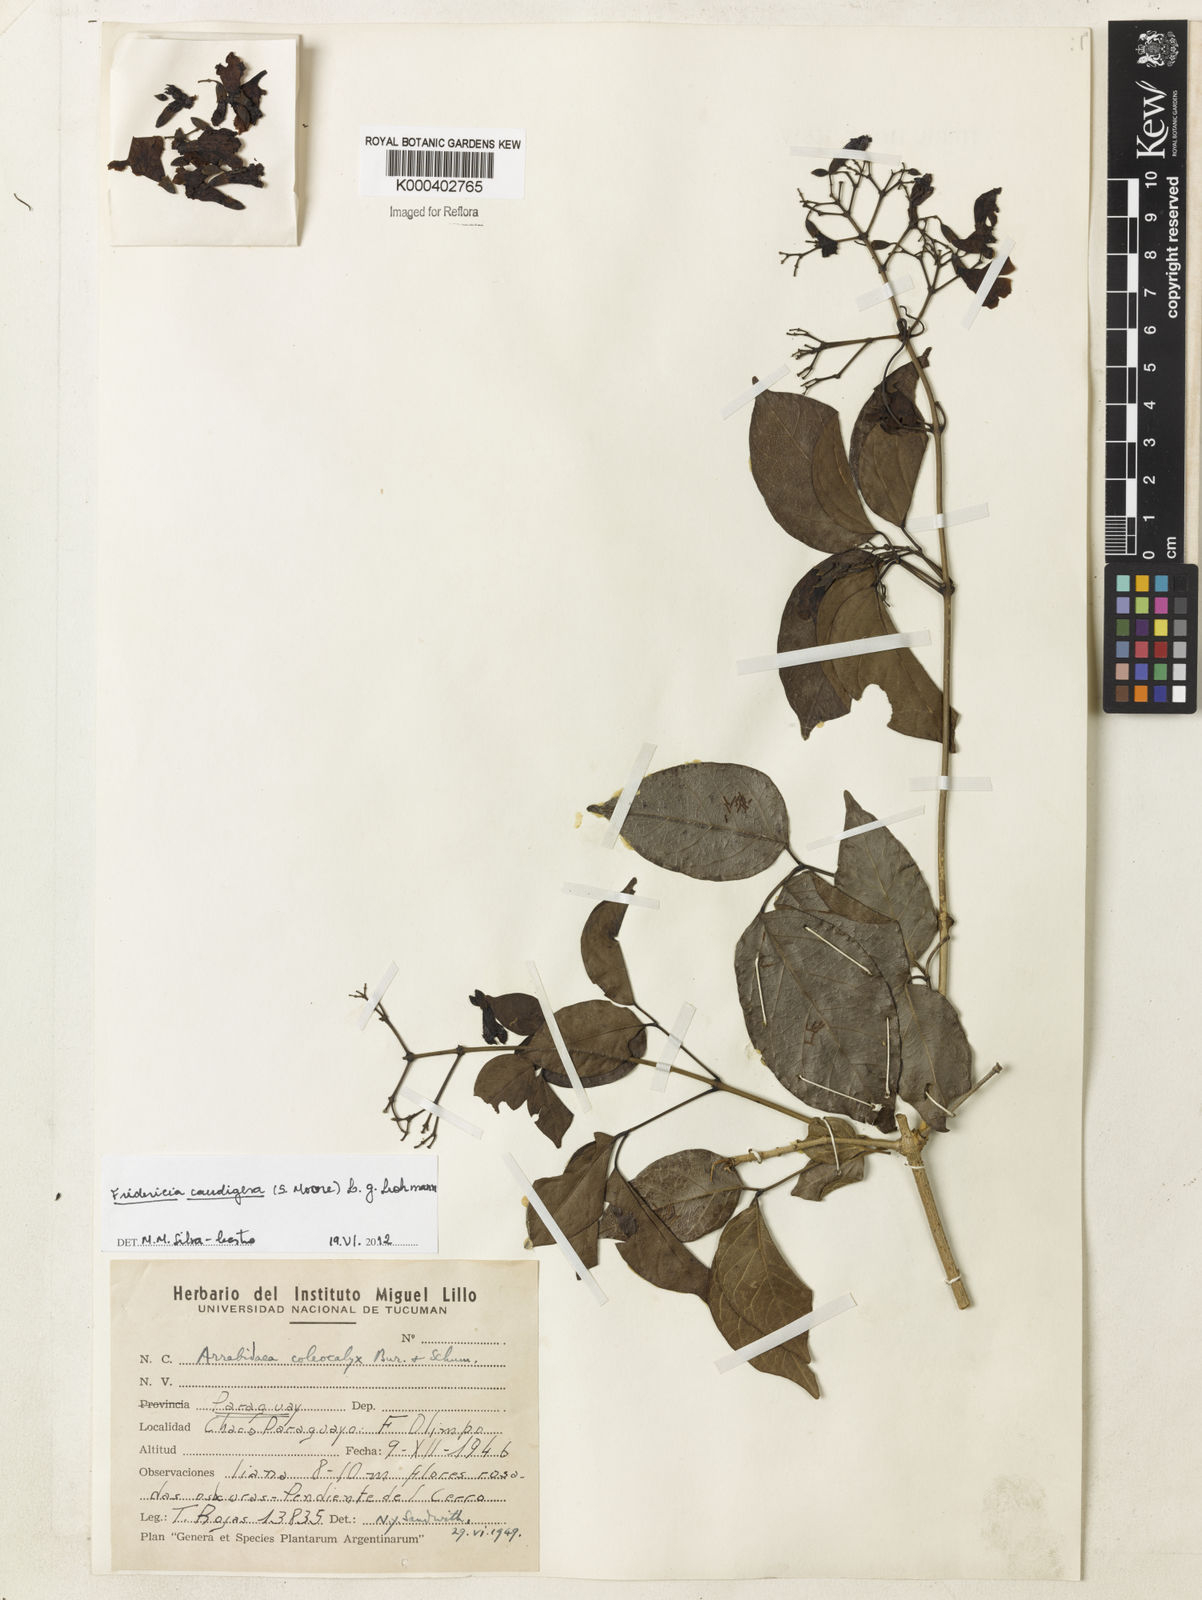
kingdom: Plantae
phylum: Tracheophyta
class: Magnoliopsida
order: Lamiales
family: Bignoniaceae
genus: Fridericia
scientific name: Fridericia caudigera
